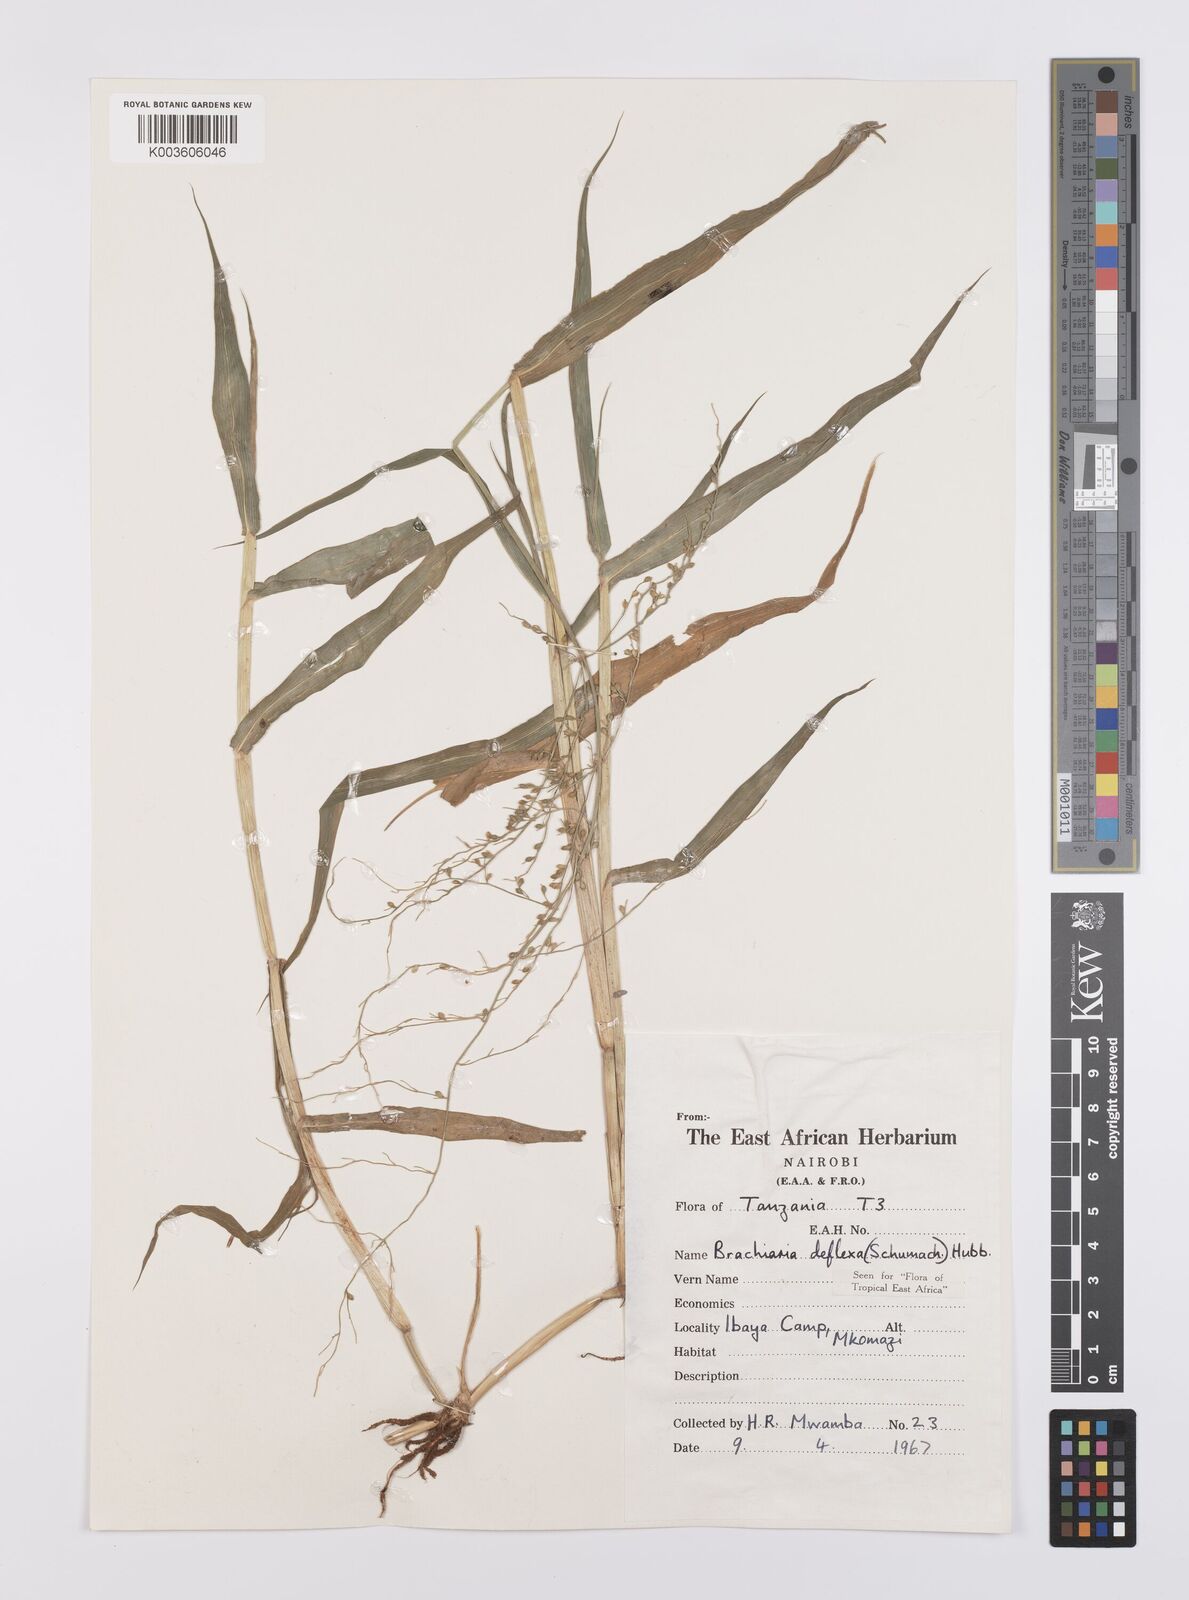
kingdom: Plantae
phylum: Tracheophyta
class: Liliopsida
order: Poales
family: Poaceae
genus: Urochloa
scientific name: Urochloa deflexa
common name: Guinea millet
